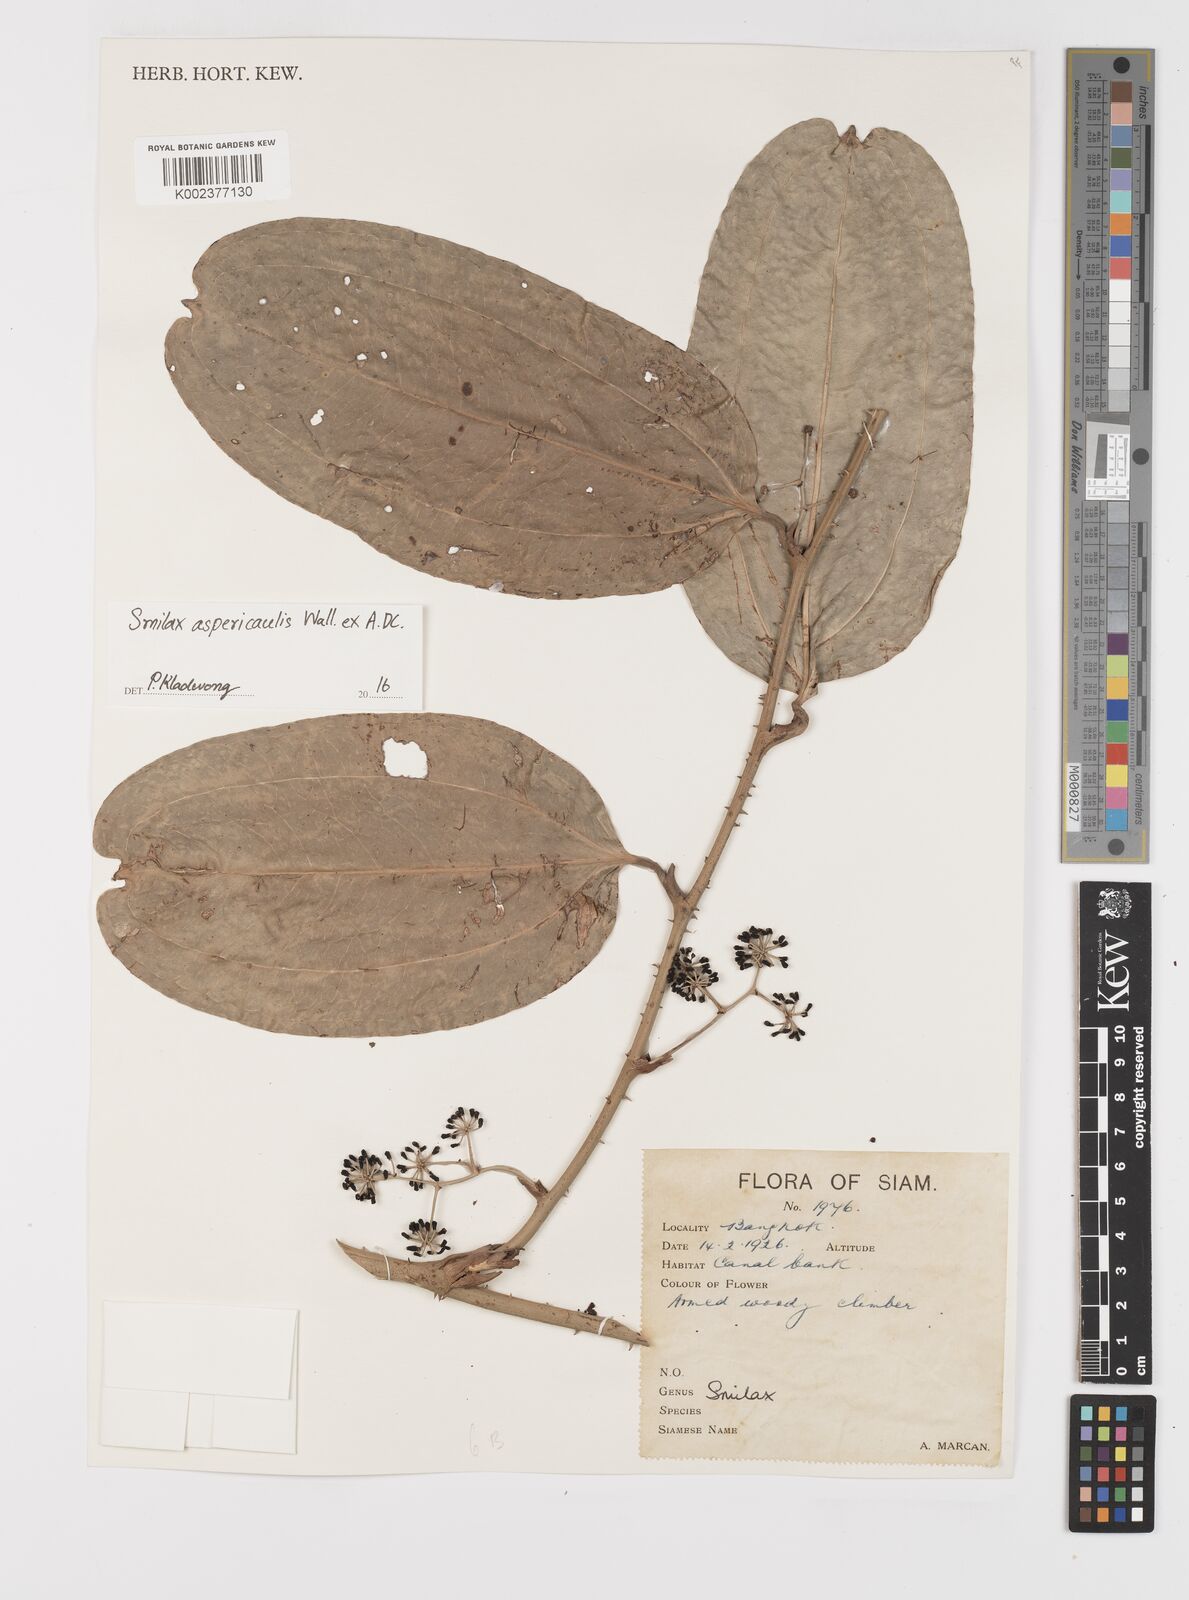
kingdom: Plantae
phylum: Tracheophyta
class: Liliopsida
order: Liliales
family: Smilacaceae
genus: Smilax
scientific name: Smilax aspericaulis
